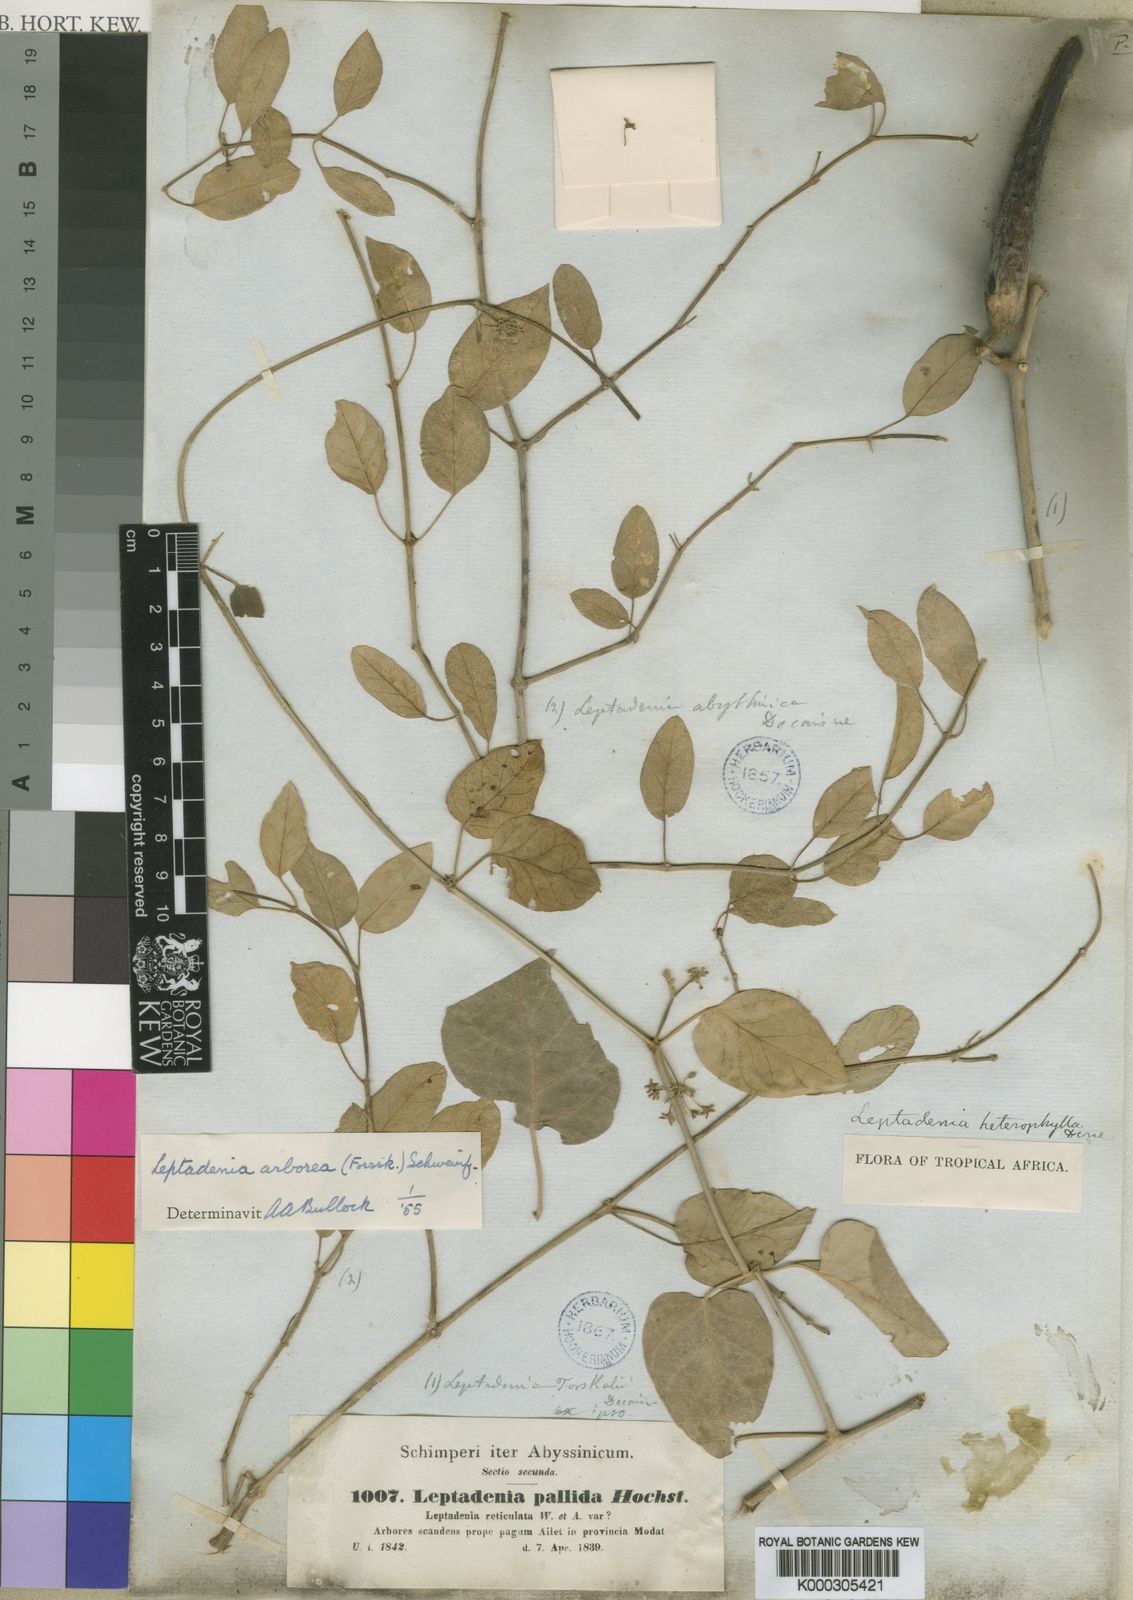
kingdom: Plantae
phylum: Tracheophyta
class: Magnoliopsida
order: Gentianales
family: Apocynaceae
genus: Leptadenia
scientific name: Leptadenia arborea
